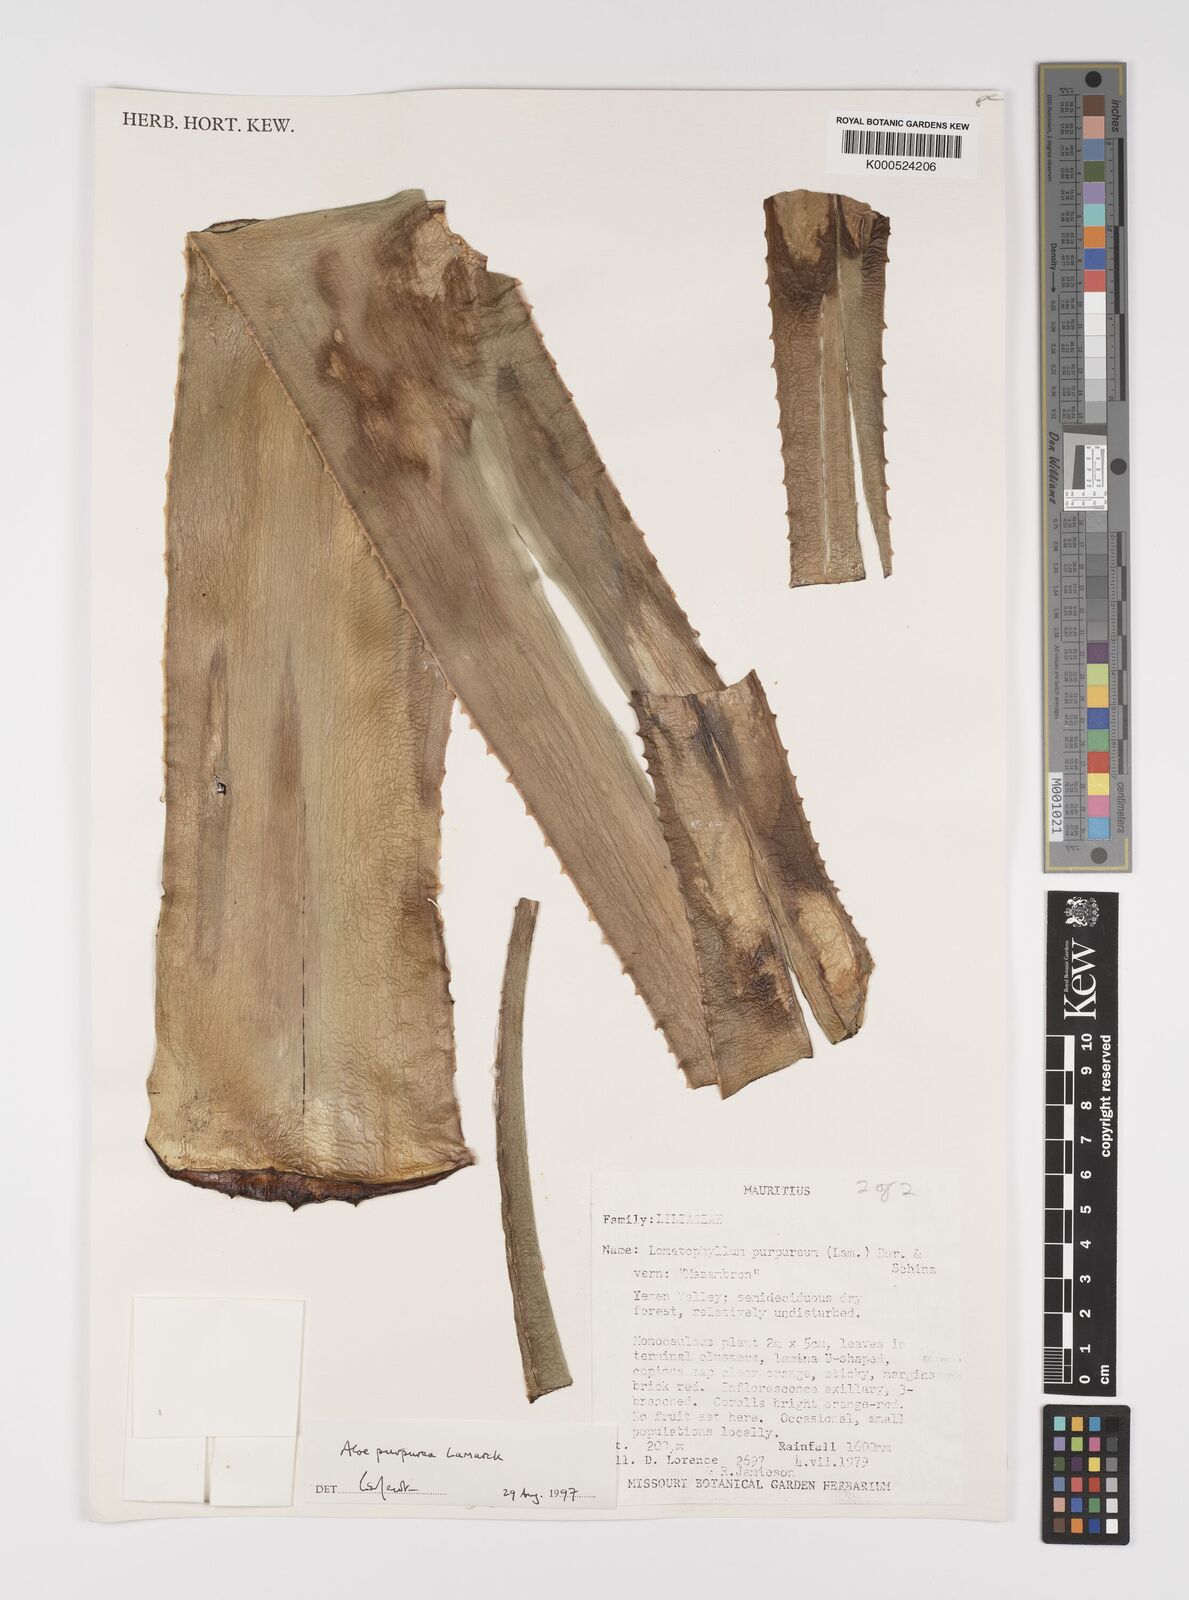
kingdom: Plantae
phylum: Tracheophyta
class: Liliopsida
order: Asparagales
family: Asphodelaceae
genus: Aloe
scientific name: Aloe purpurea
